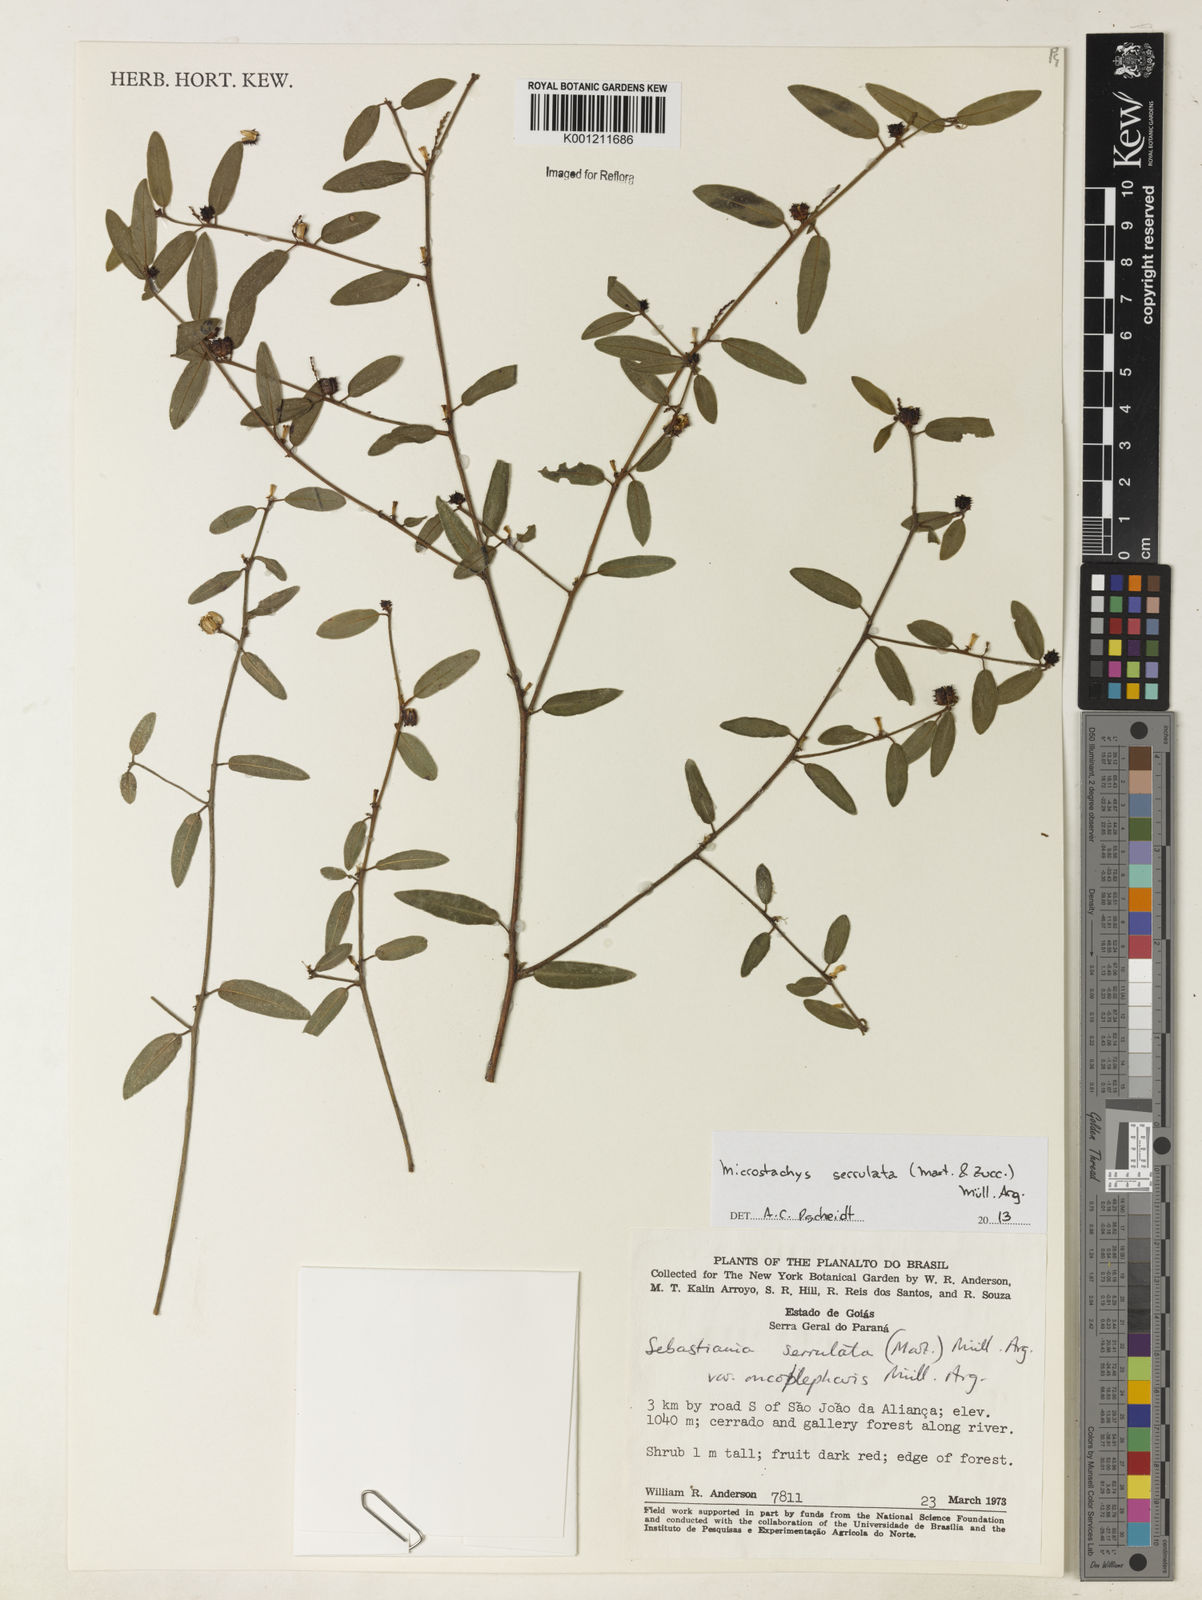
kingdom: Plantae
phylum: Tracheophyta
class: Magnoliopsida
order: Malpighiales
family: Euphorbiaceae
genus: Microstachys
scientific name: Microstachys
